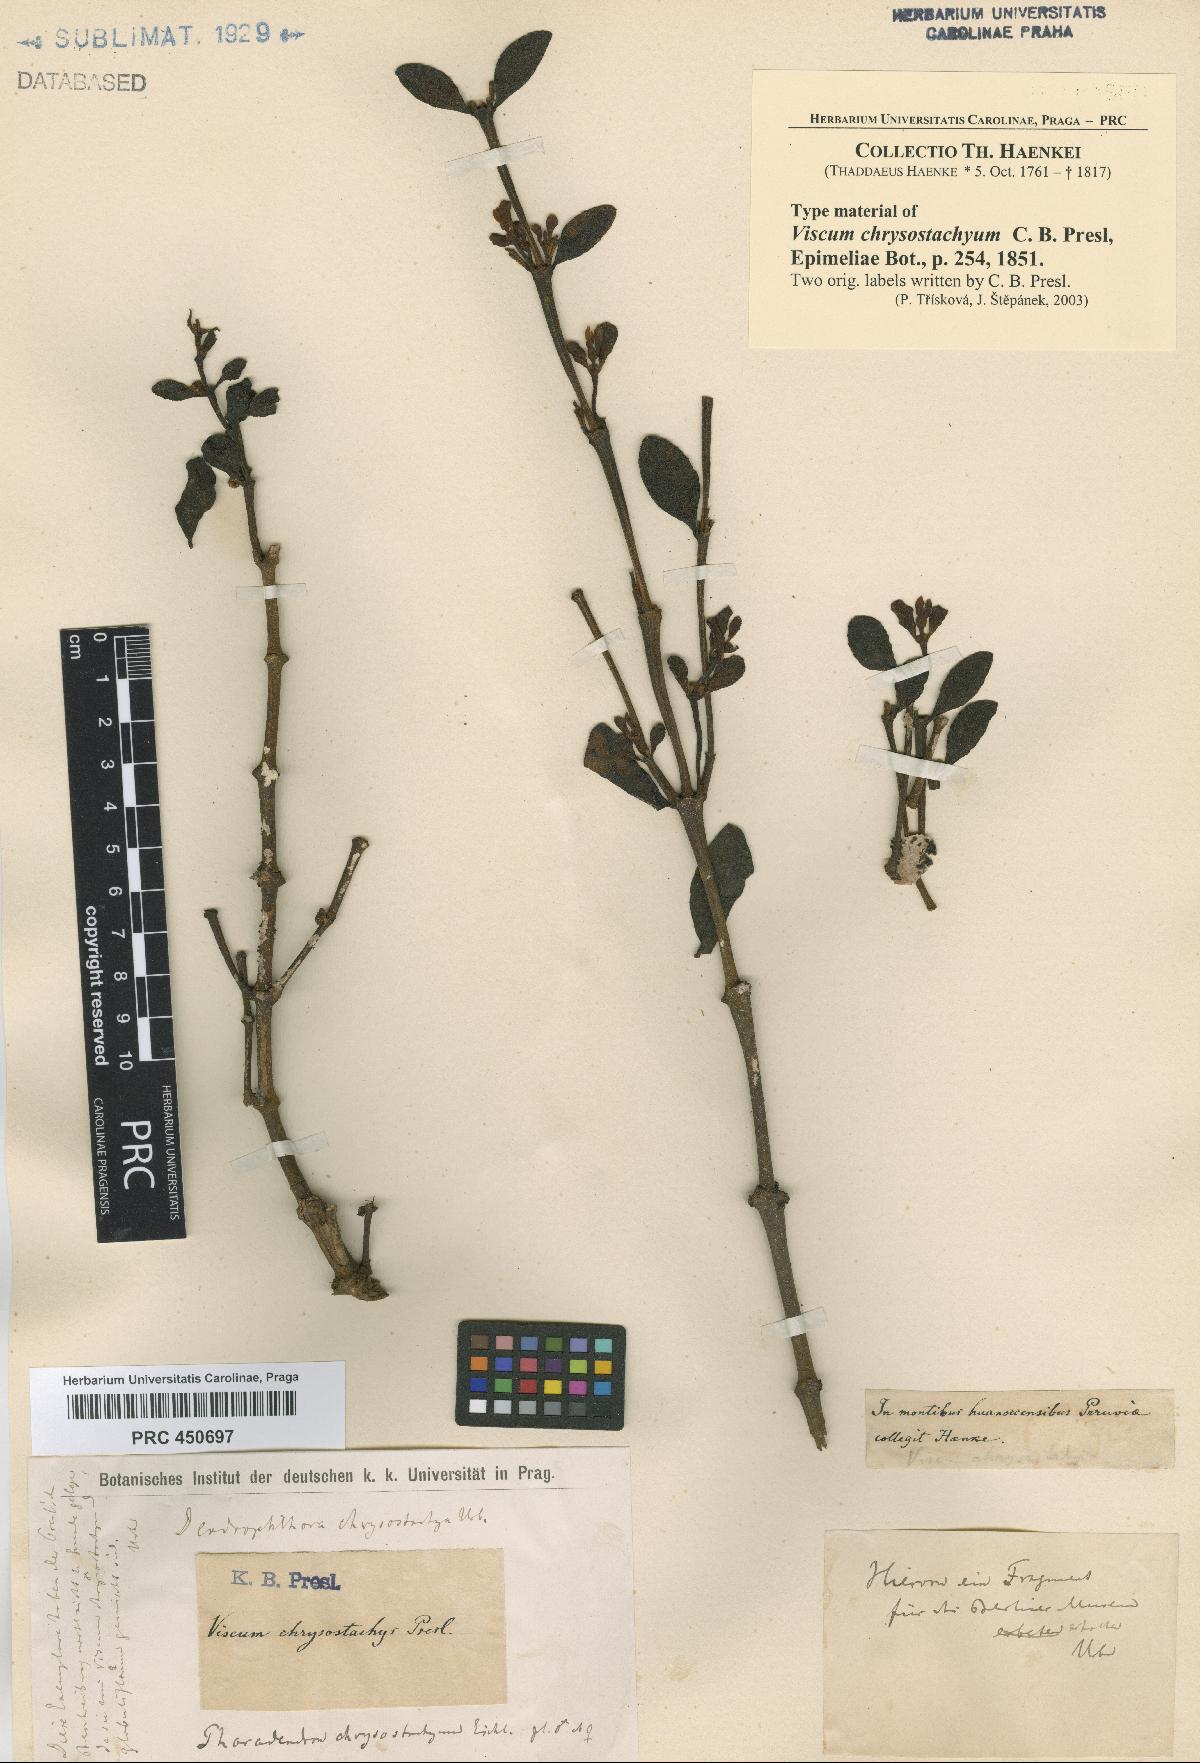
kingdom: Plantae
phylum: Tracheophyta
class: Magnoliopsida
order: Santalales
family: Viscaceae
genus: Dendrophthora
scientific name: Dendrophthora chrysostachya
